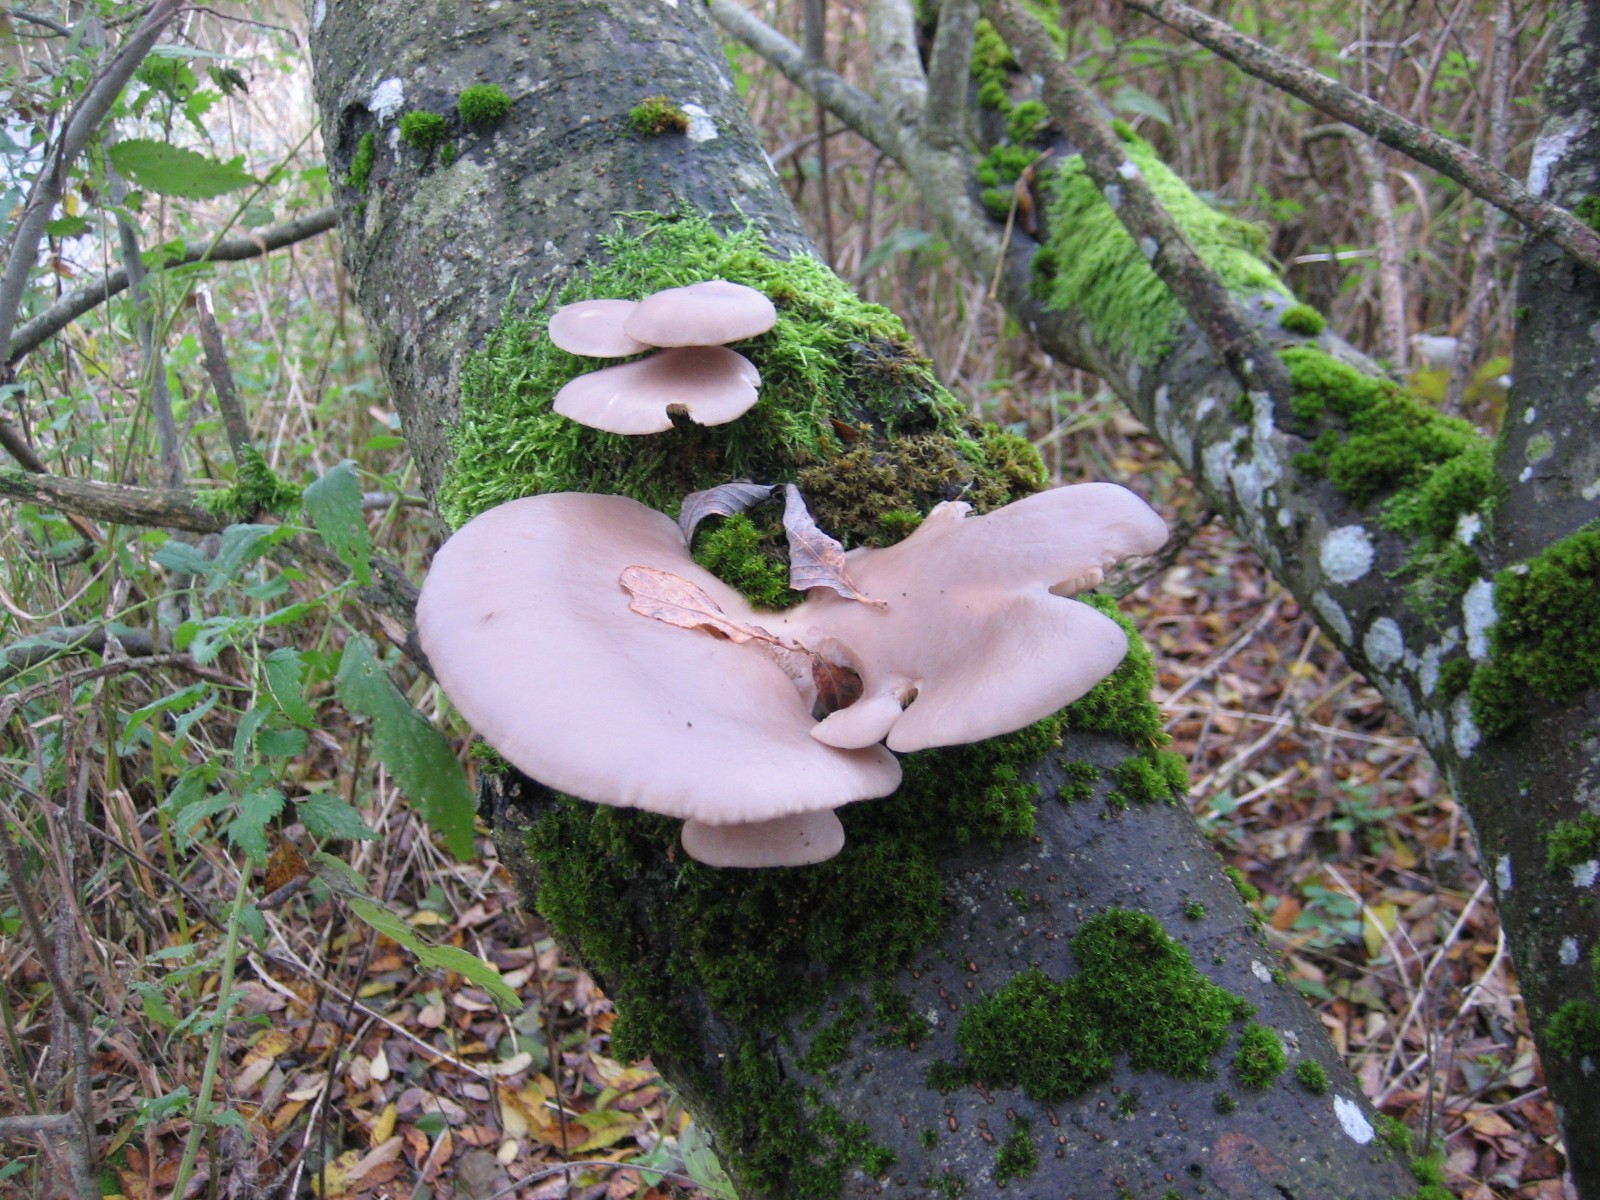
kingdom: Fungi
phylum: Basidiomycota
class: Agaricomycetes
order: Agaricales
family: Pleurotaceae
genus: Pleurotus
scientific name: Pleurotus ostreatus
